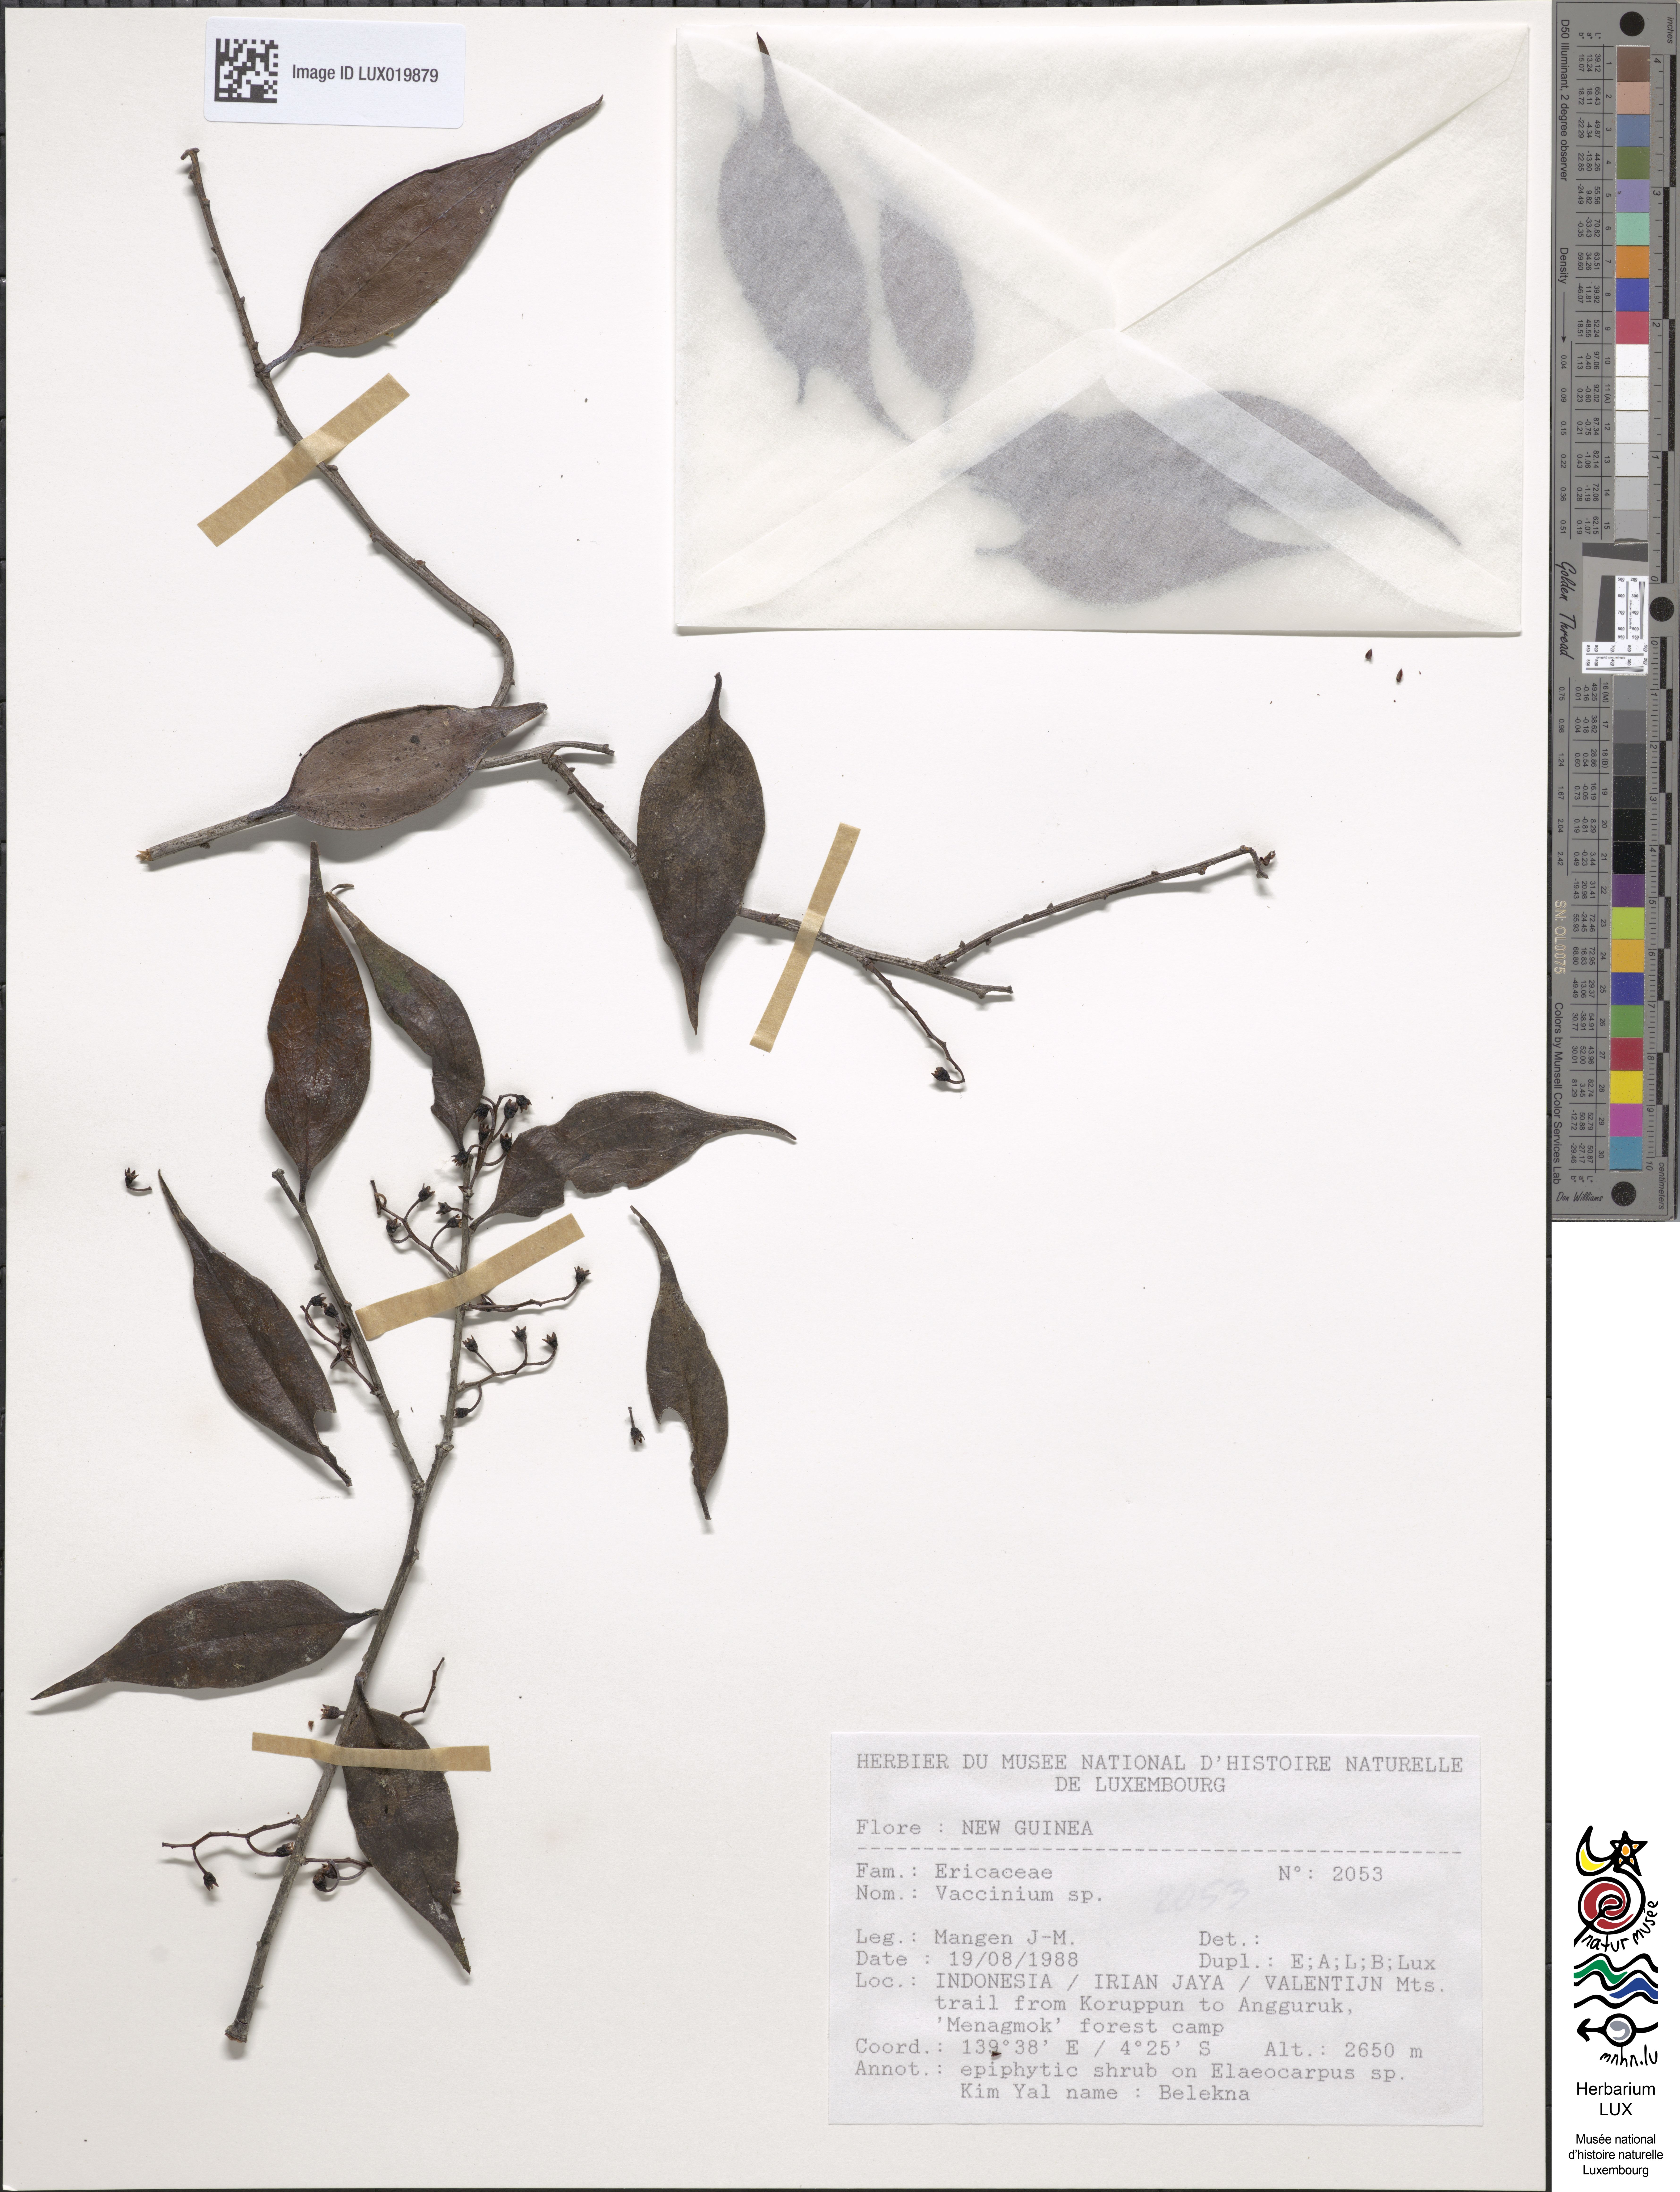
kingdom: Plantae
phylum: Tracheophyta
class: Magnoliopsida
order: Ericales
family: Ericaceae
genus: Vaccinium
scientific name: Vaccinium
